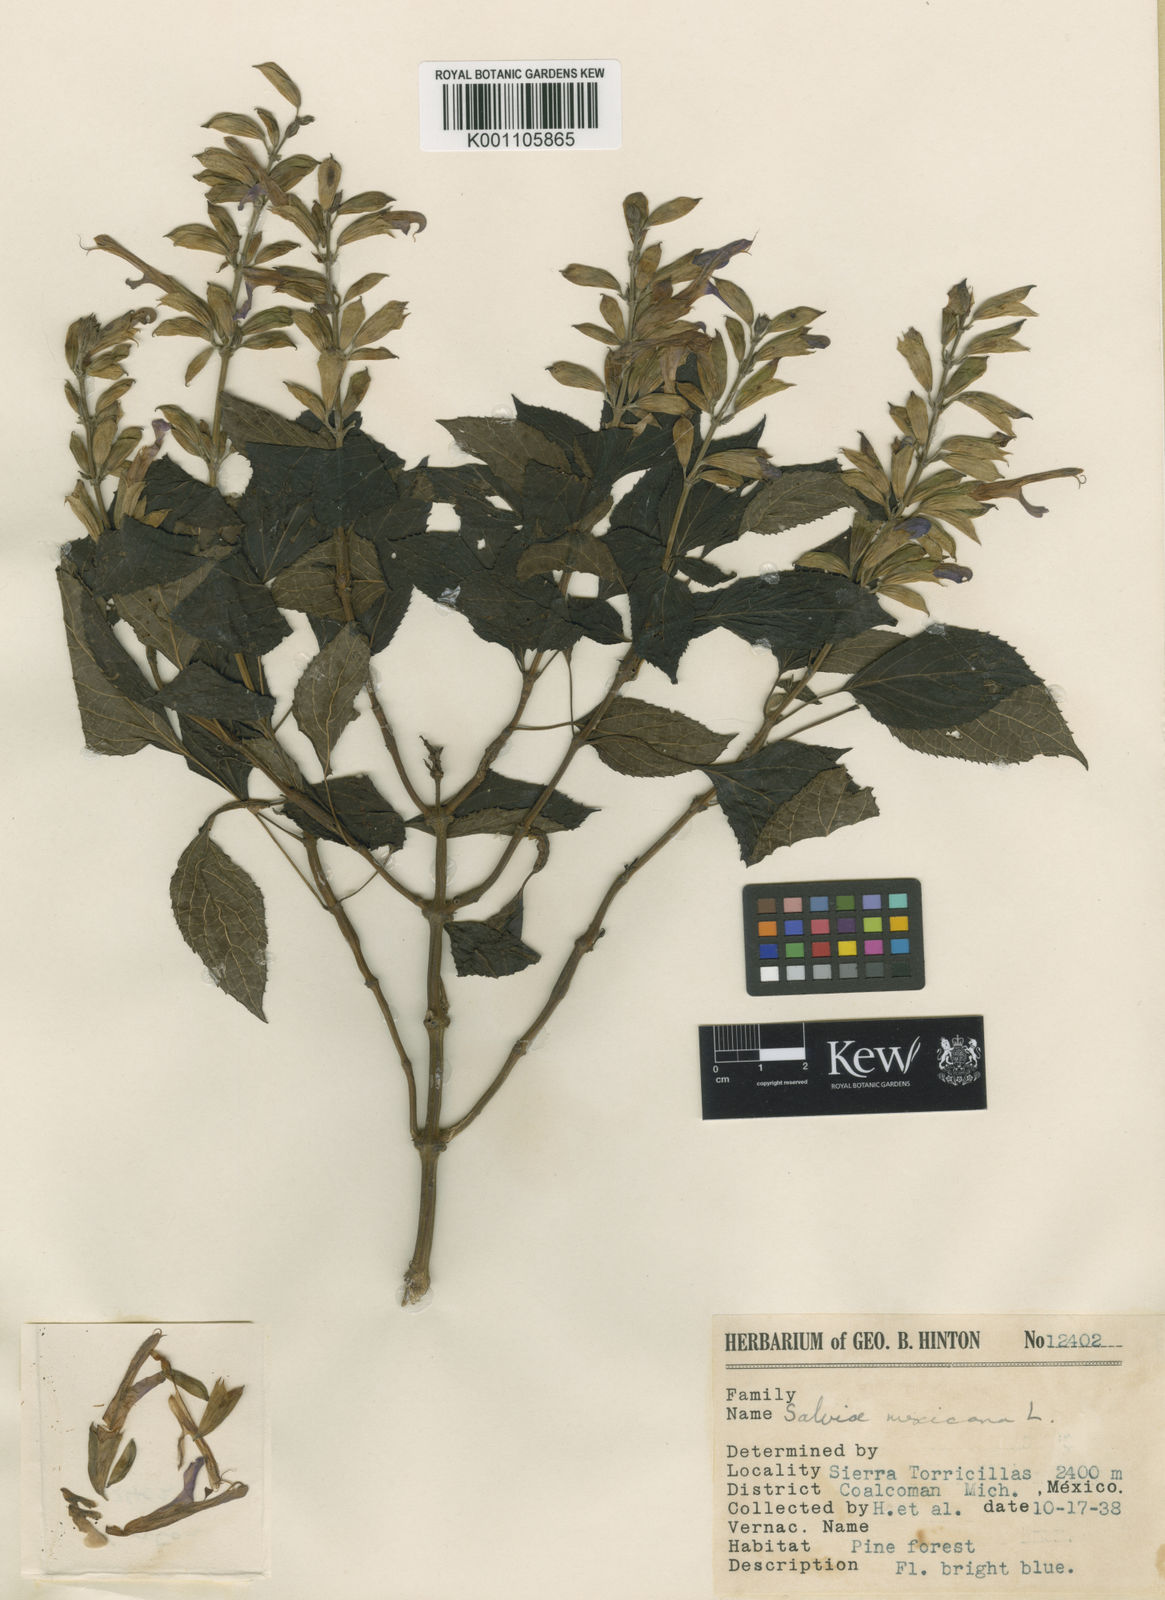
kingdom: Plantae
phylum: Tracheophyta
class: Magnoliopsida
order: Lamiales
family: Lamiaceae
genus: Salvia
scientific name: Salvia discolor
